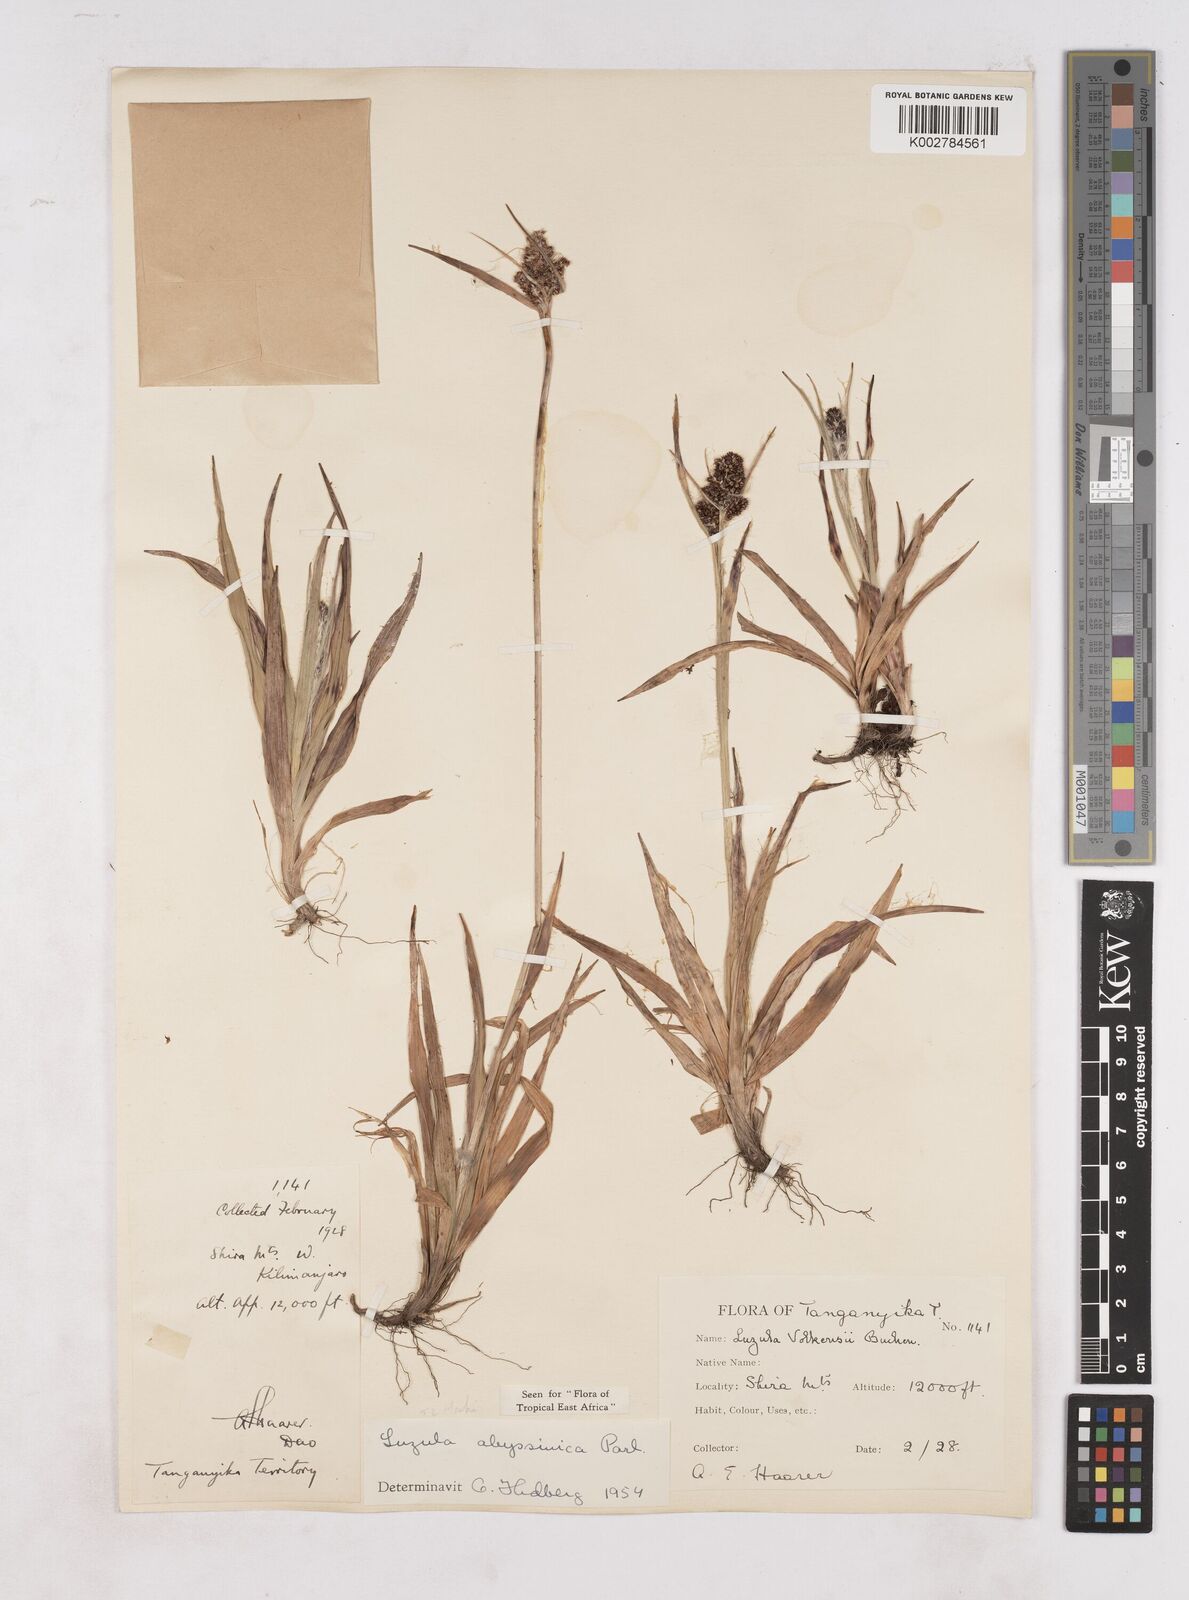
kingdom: Plantae
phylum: Tracheophyta
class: Liliopsida
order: Poales
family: Juncaceae
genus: Luzula
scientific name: Luzula abyssinica
